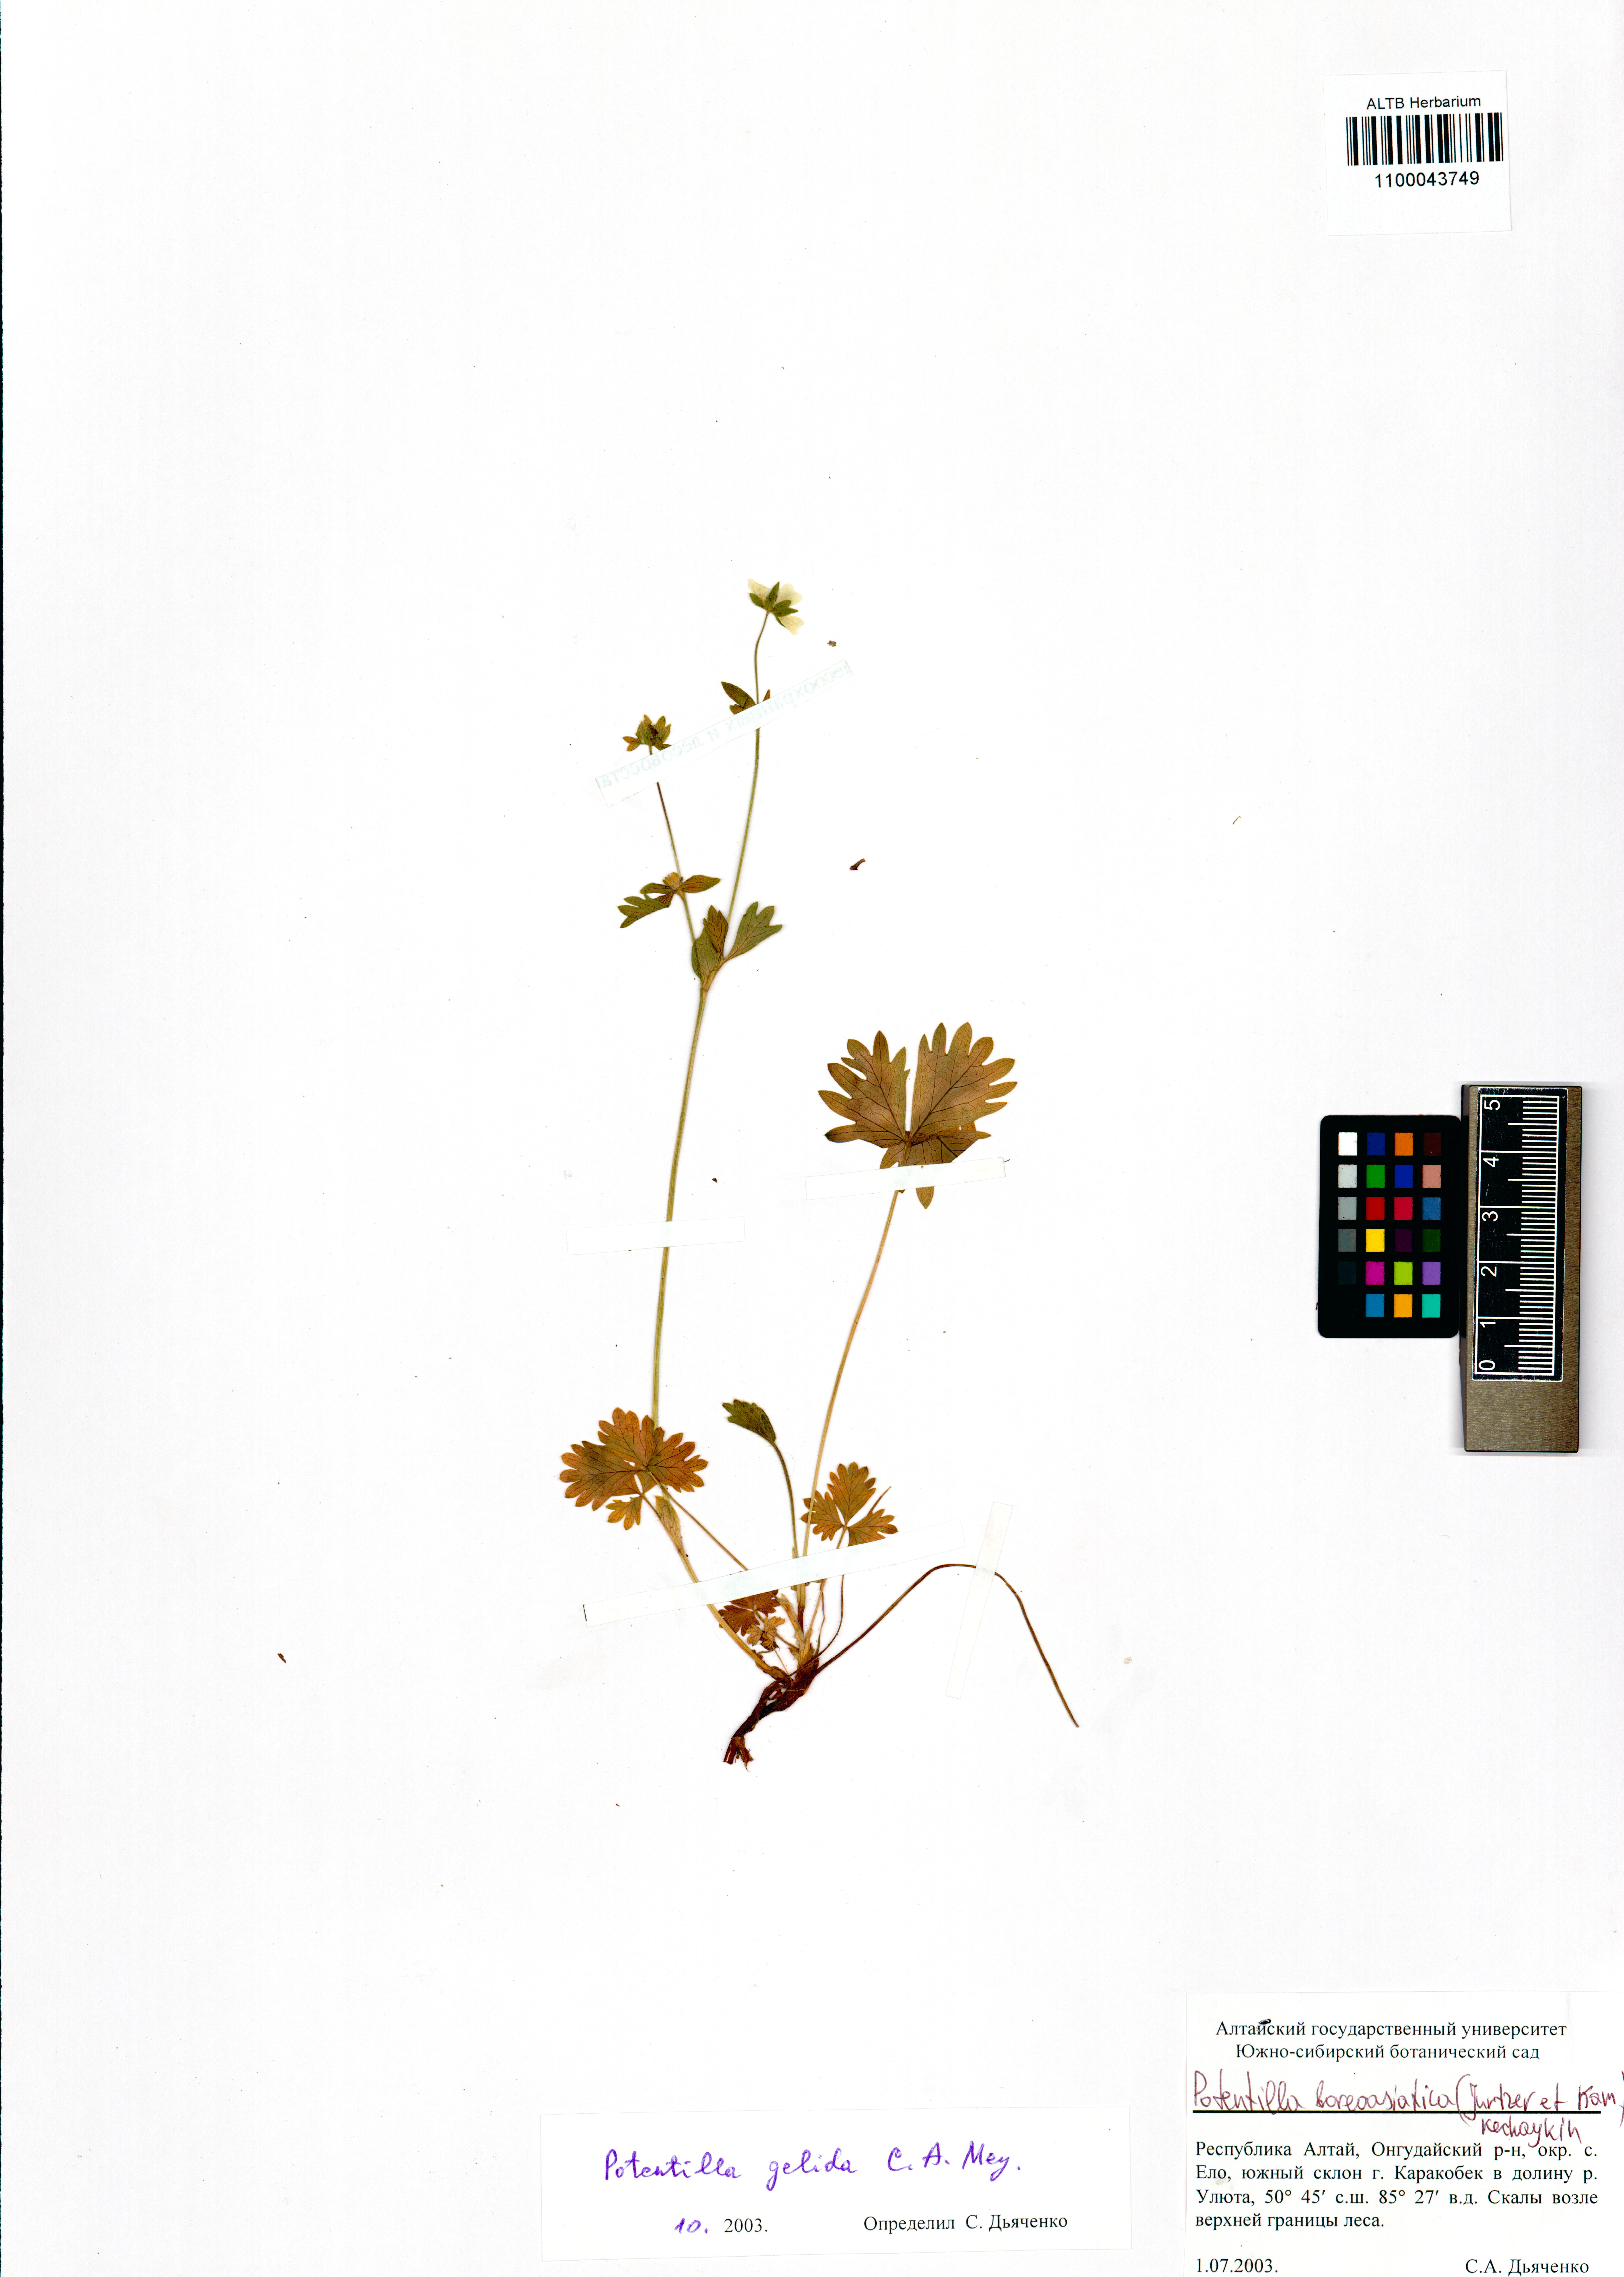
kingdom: Plantae
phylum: Tracheophyta
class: Magnoliopsida
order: Rosales
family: Rosaceae
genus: Potentilla
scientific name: Potentilla
